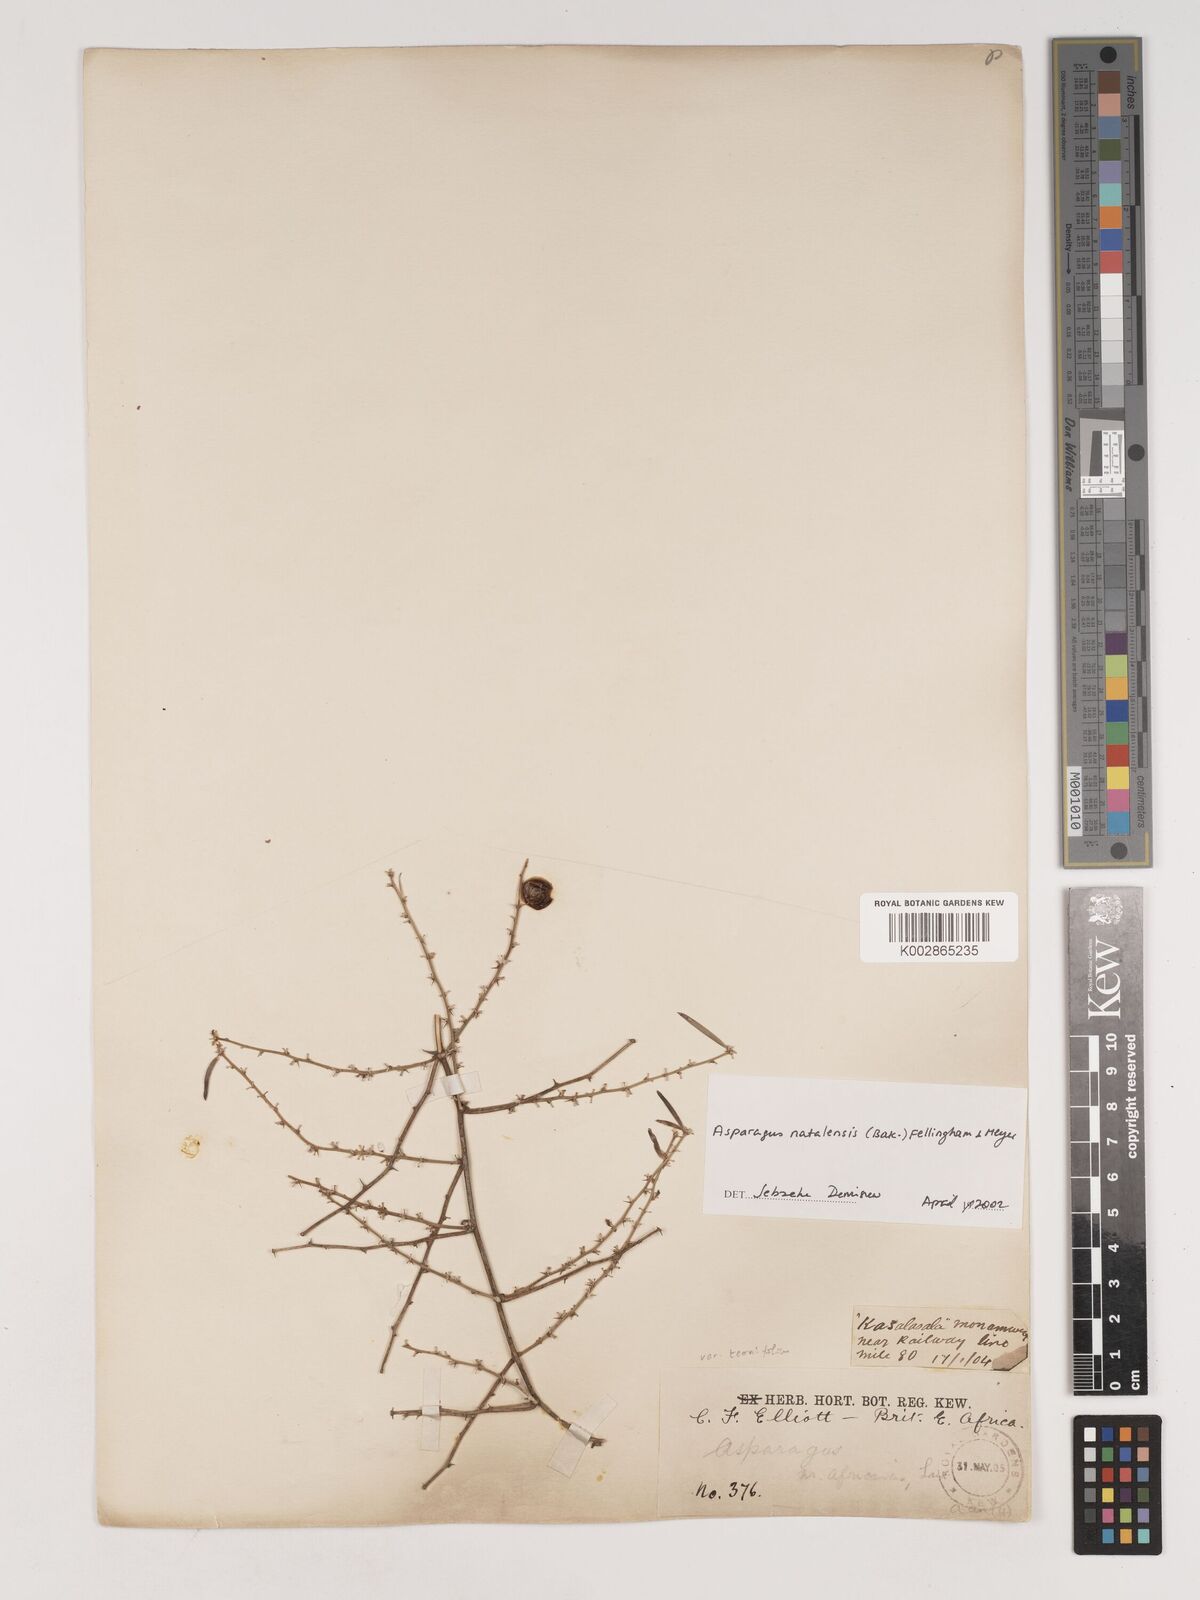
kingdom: Plantae
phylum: Tracheophyta
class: Liliopsida
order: Asparagales
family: Asparagaceae
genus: Asparagus
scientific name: Asparagus natalensis
